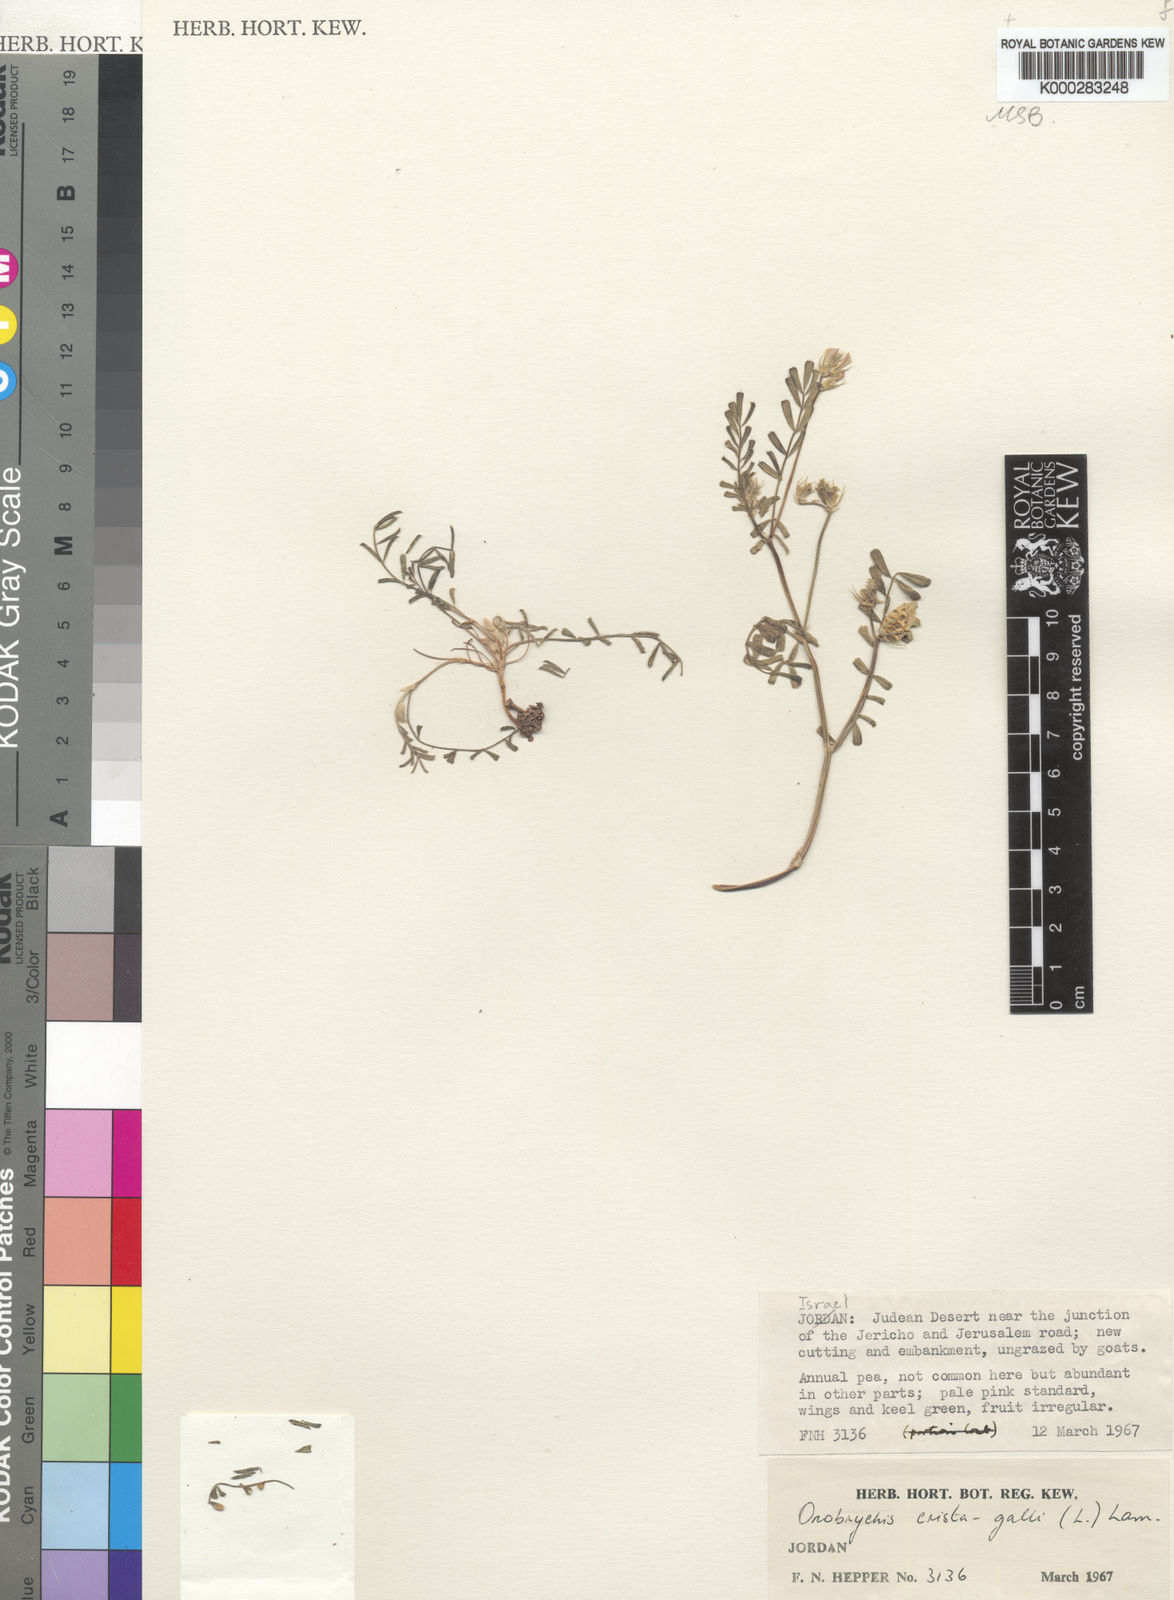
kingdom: Plantae
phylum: Tracheophyta
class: Magnoliopsida
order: Fabales
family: Fabaceae
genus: Onobrychis
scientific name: Onobrychis crista-galli
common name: Cockscomb sainfoin
